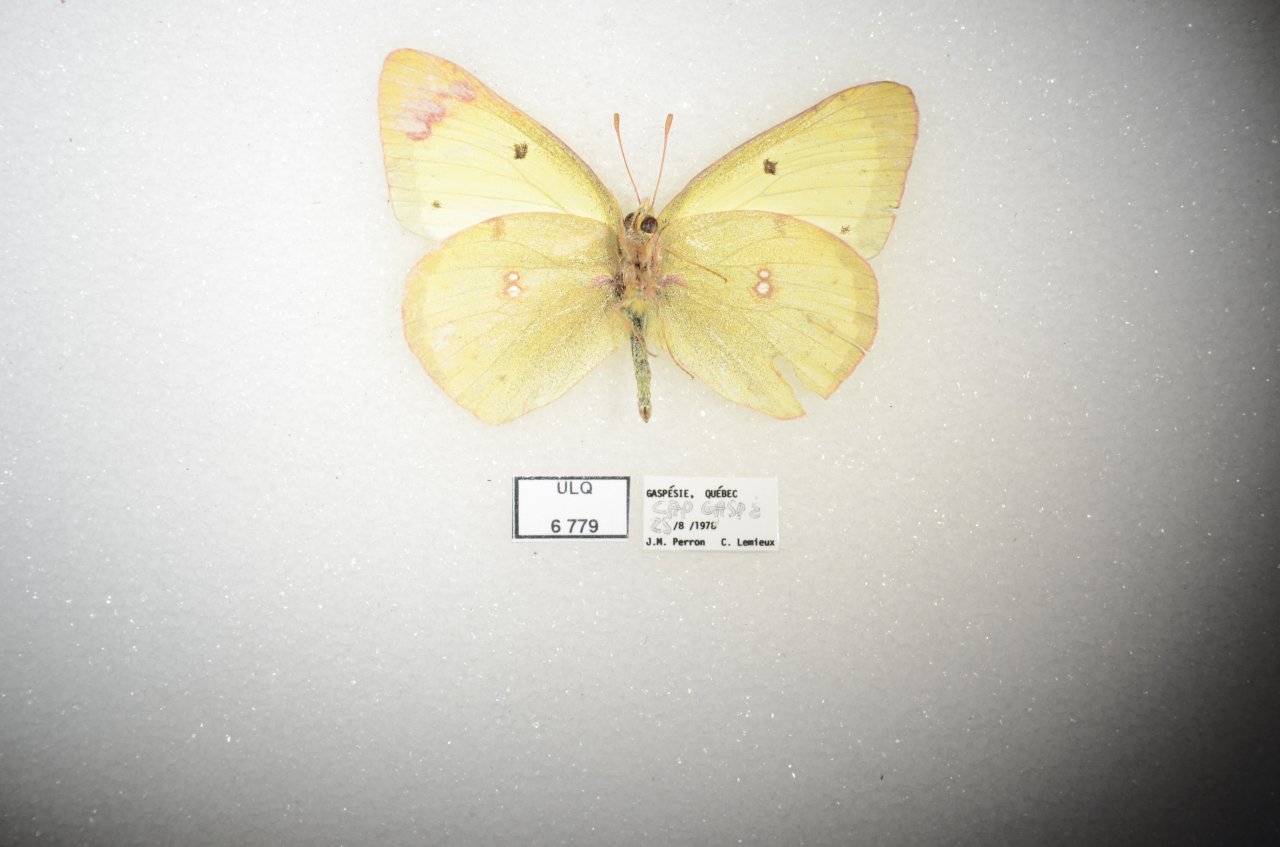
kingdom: Animalia
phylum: Arthropoda
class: Insecta
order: Lepidoptera
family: Pieridae
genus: Colias
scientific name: Colias interior
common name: Pink-edged Sulphur
